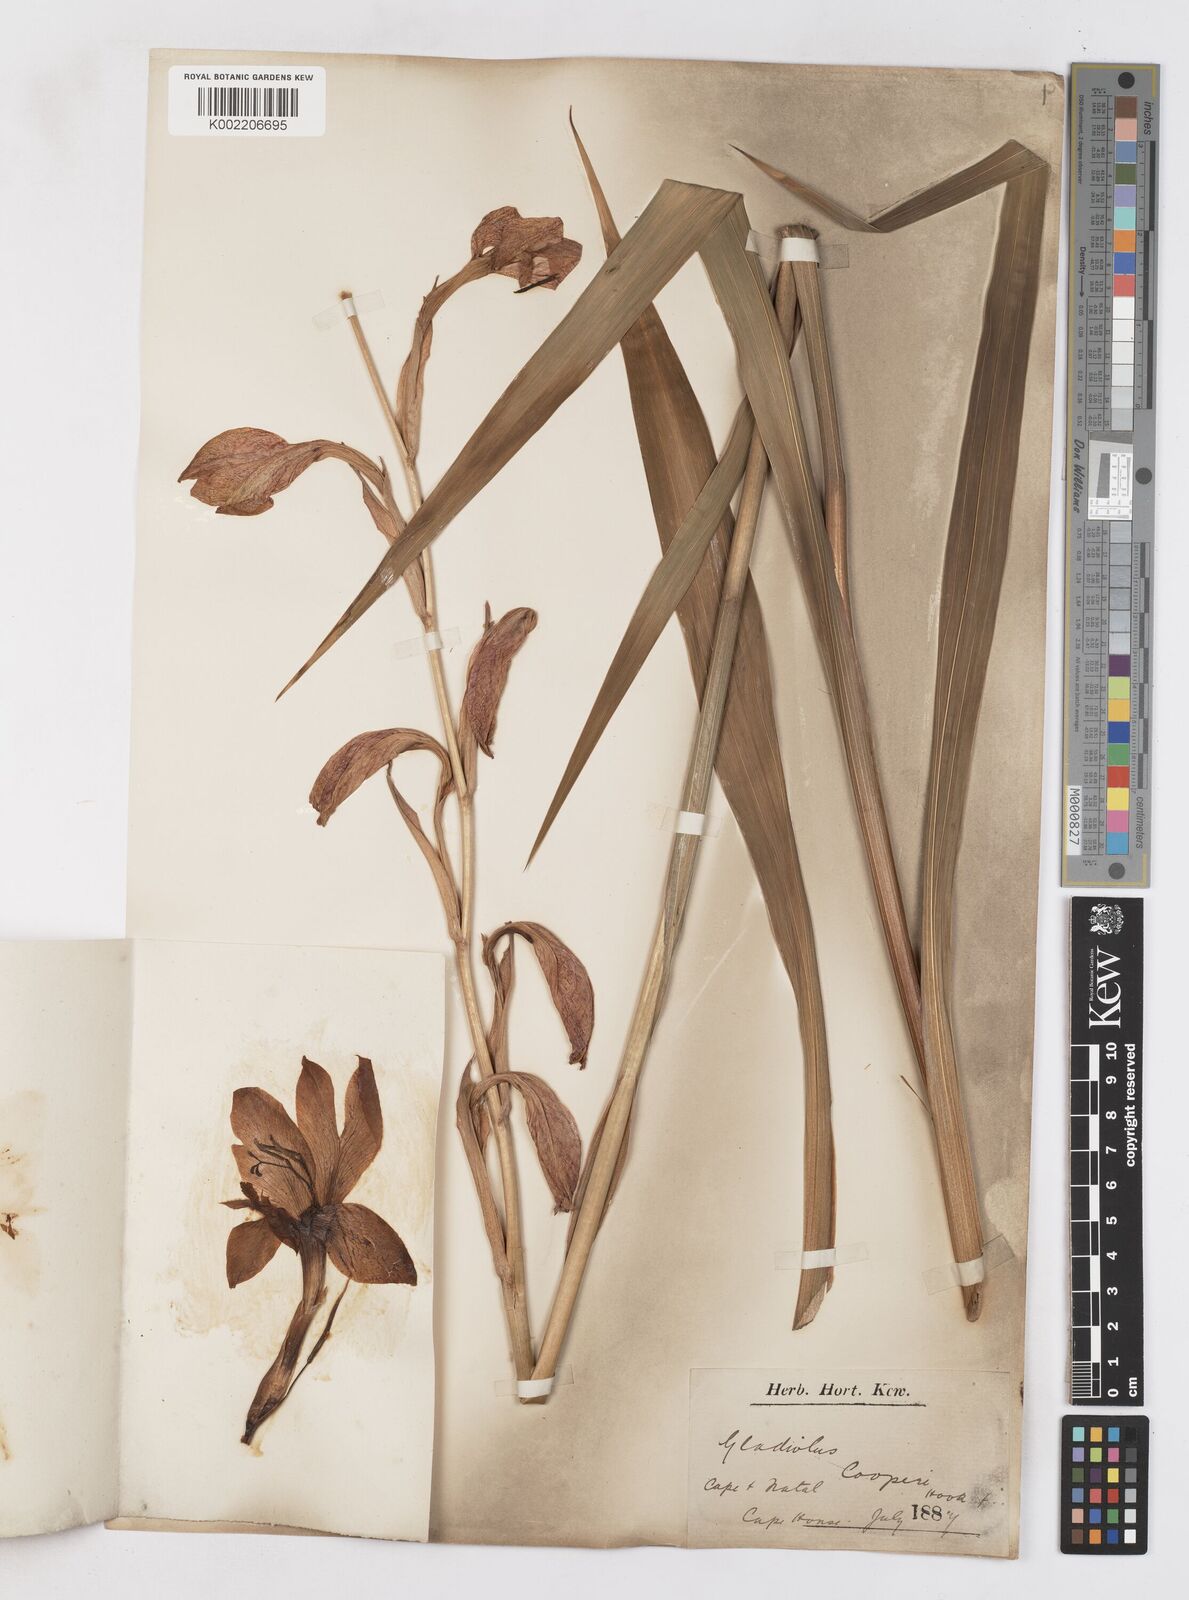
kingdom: Plantae
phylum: Tracheophyta
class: Liliopsida
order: Asparagales
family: Iridaceae
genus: Gladiolus
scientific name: Gladiolus dalenii
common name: Cornflag
